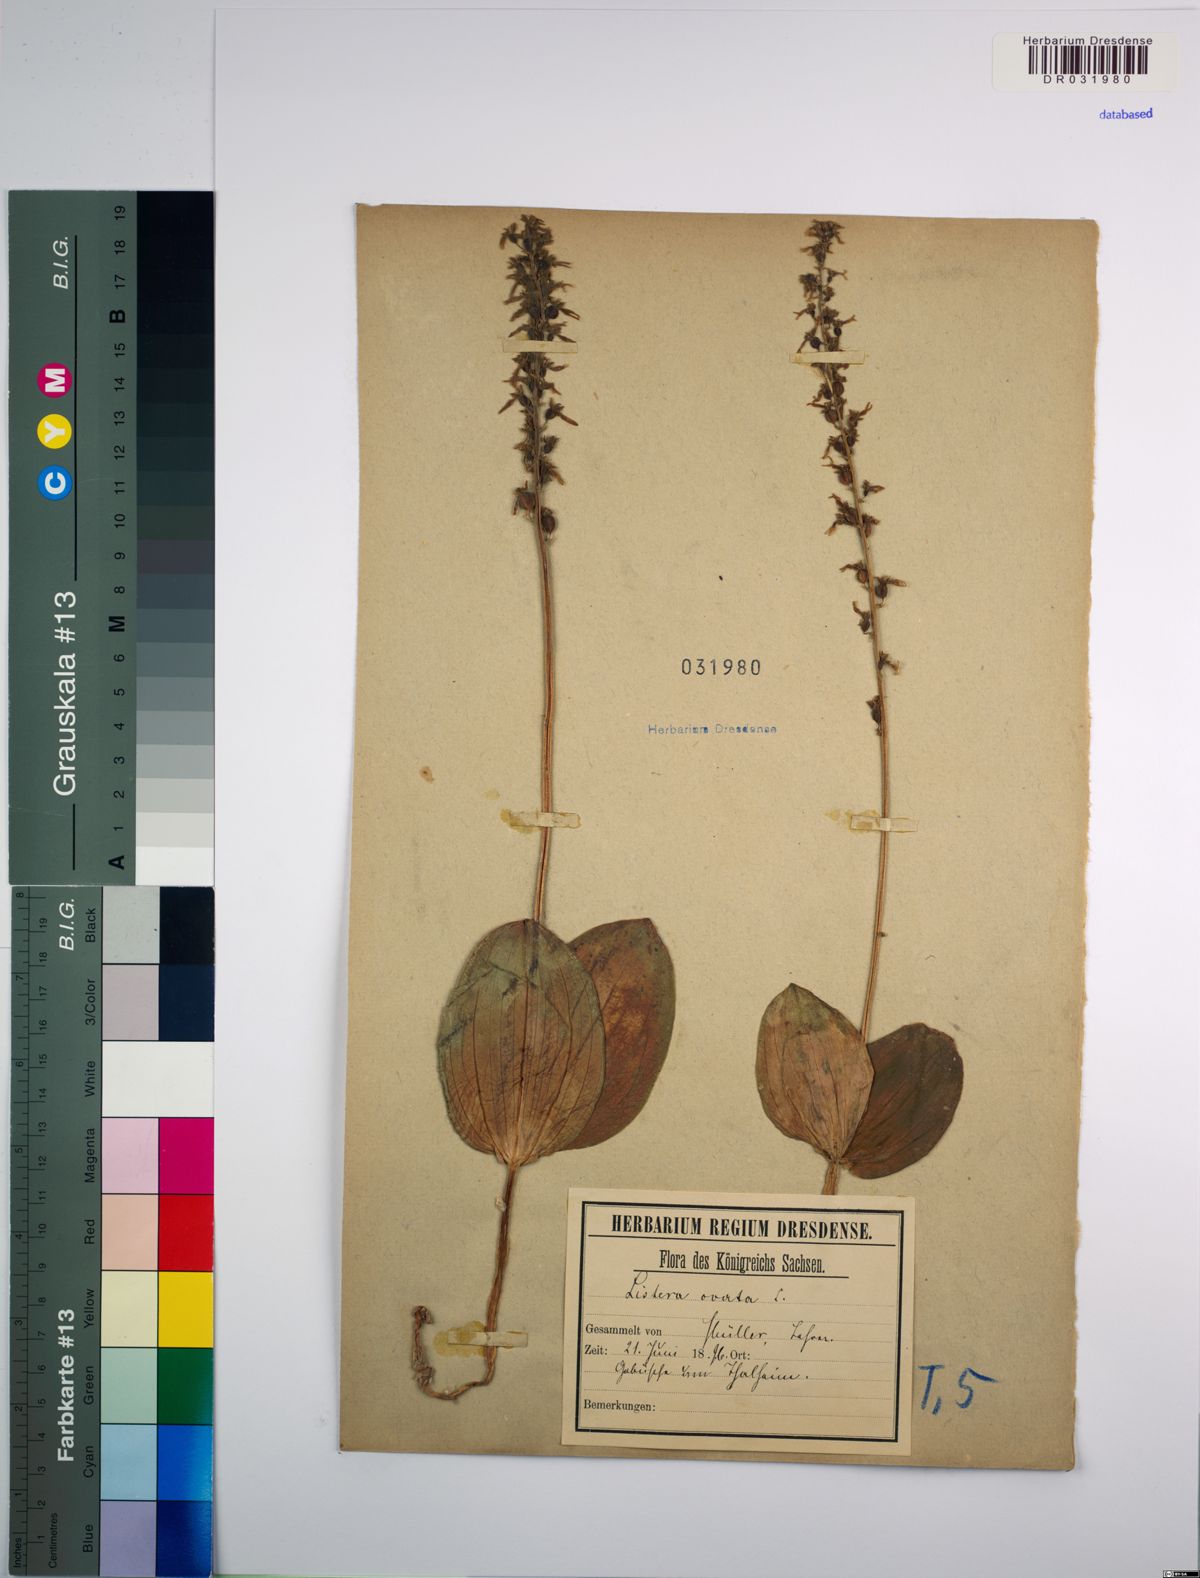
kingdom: Plantae
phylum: Tracheophyta
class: Liliopsida
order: Asparagales
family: Orchidaceae
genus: Neottia
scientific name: Neottia ovata
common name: Common twayblade
